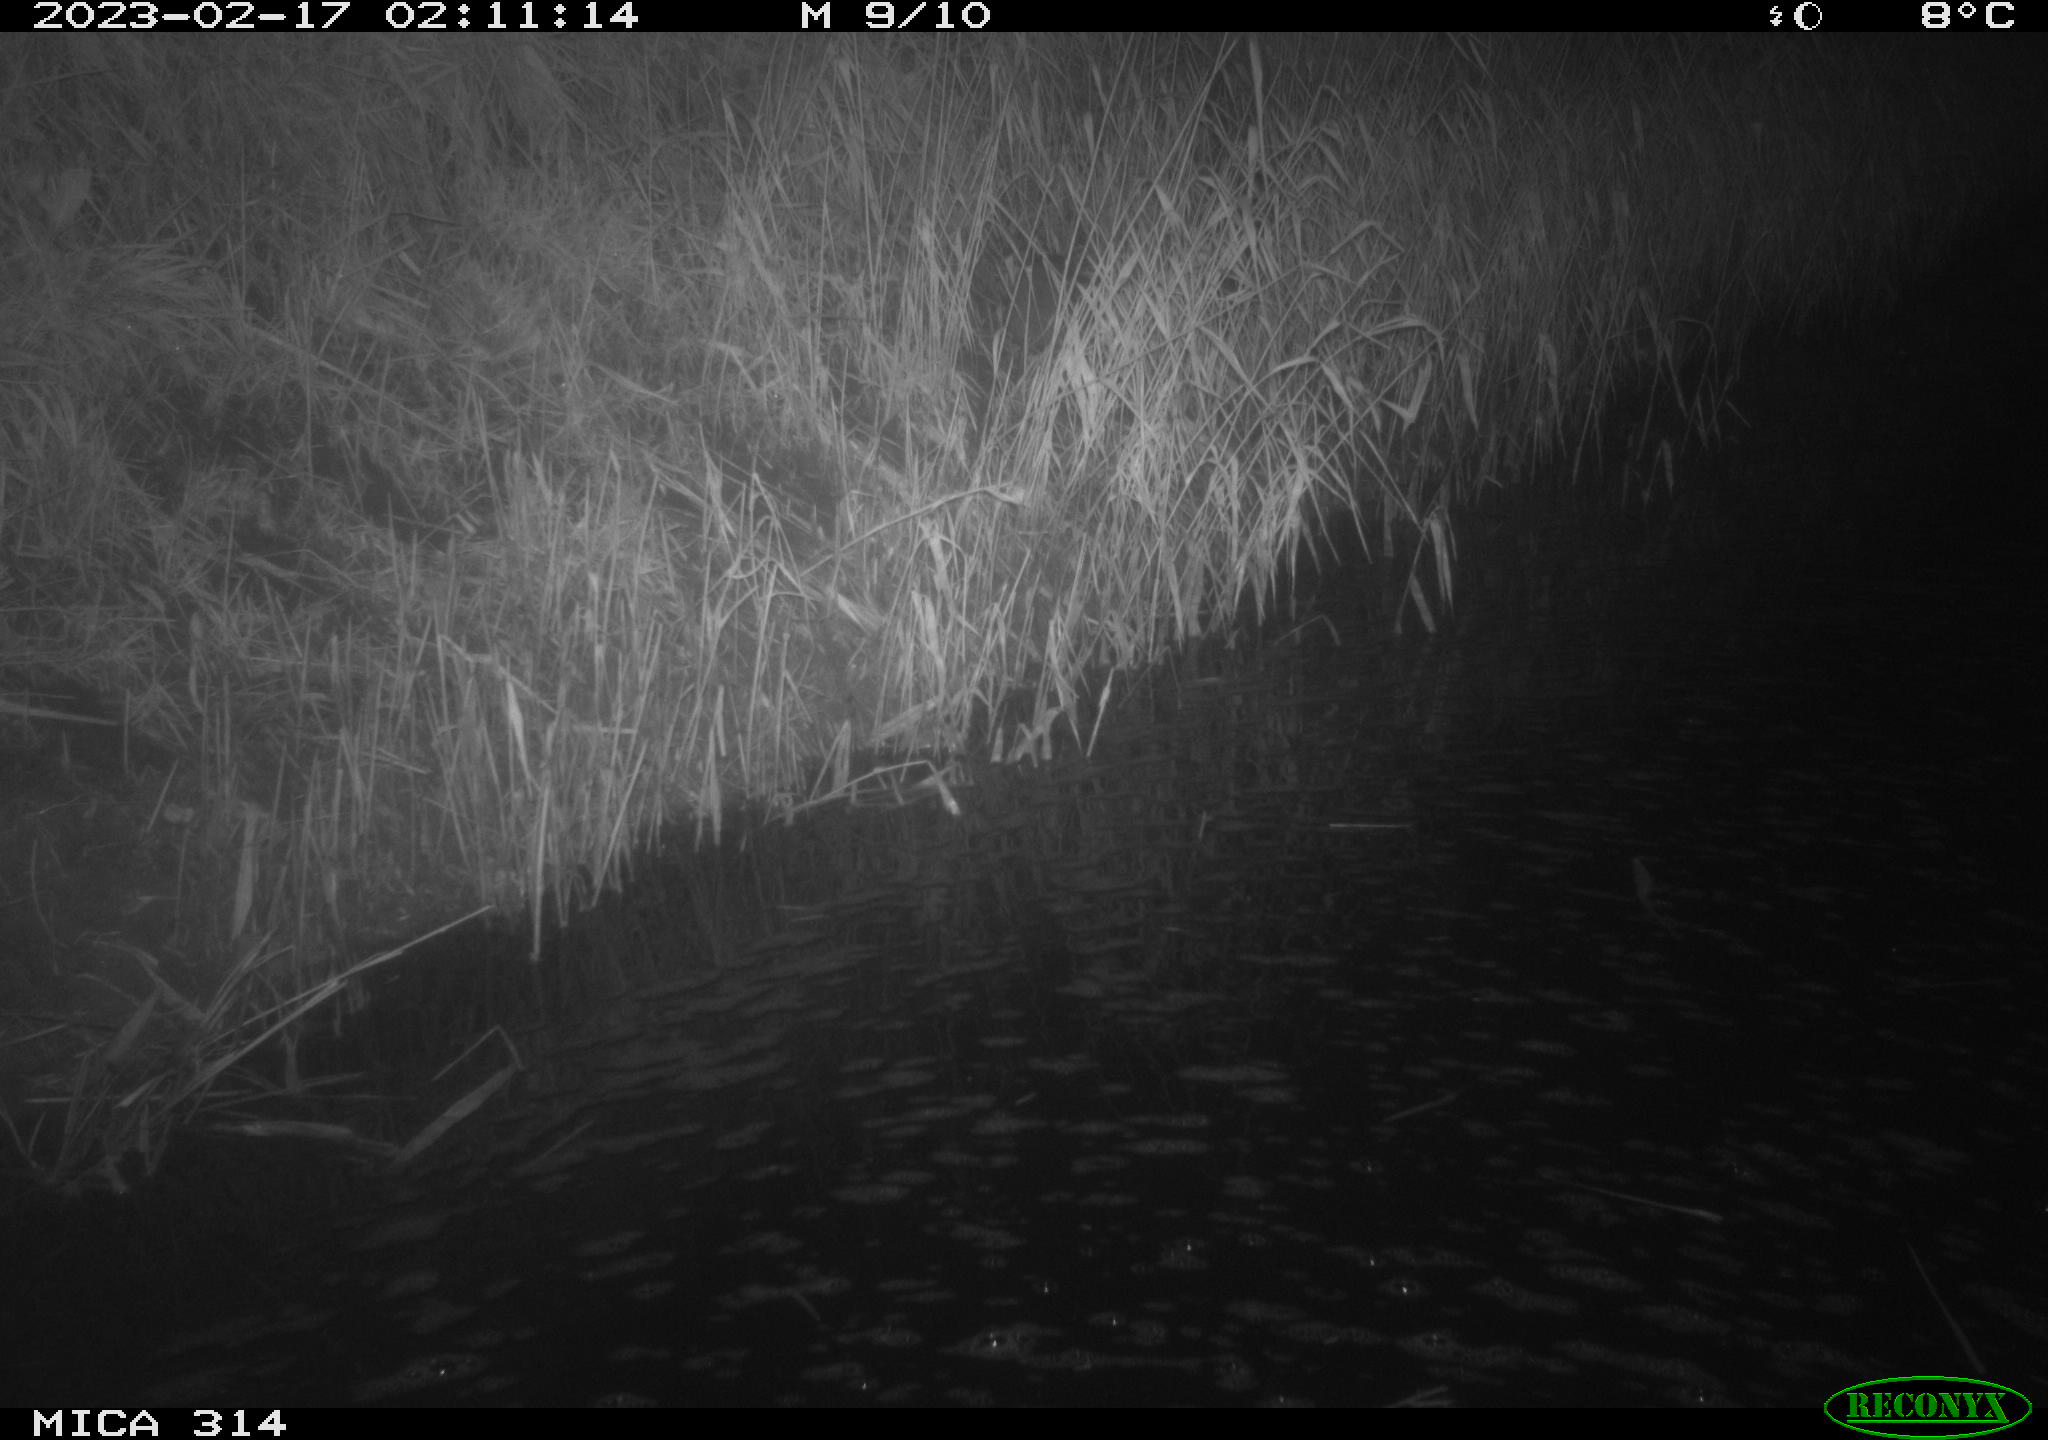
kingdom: Animalia
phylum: Chordata
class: Mammalia
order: Rodentia
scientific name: Rodentia
